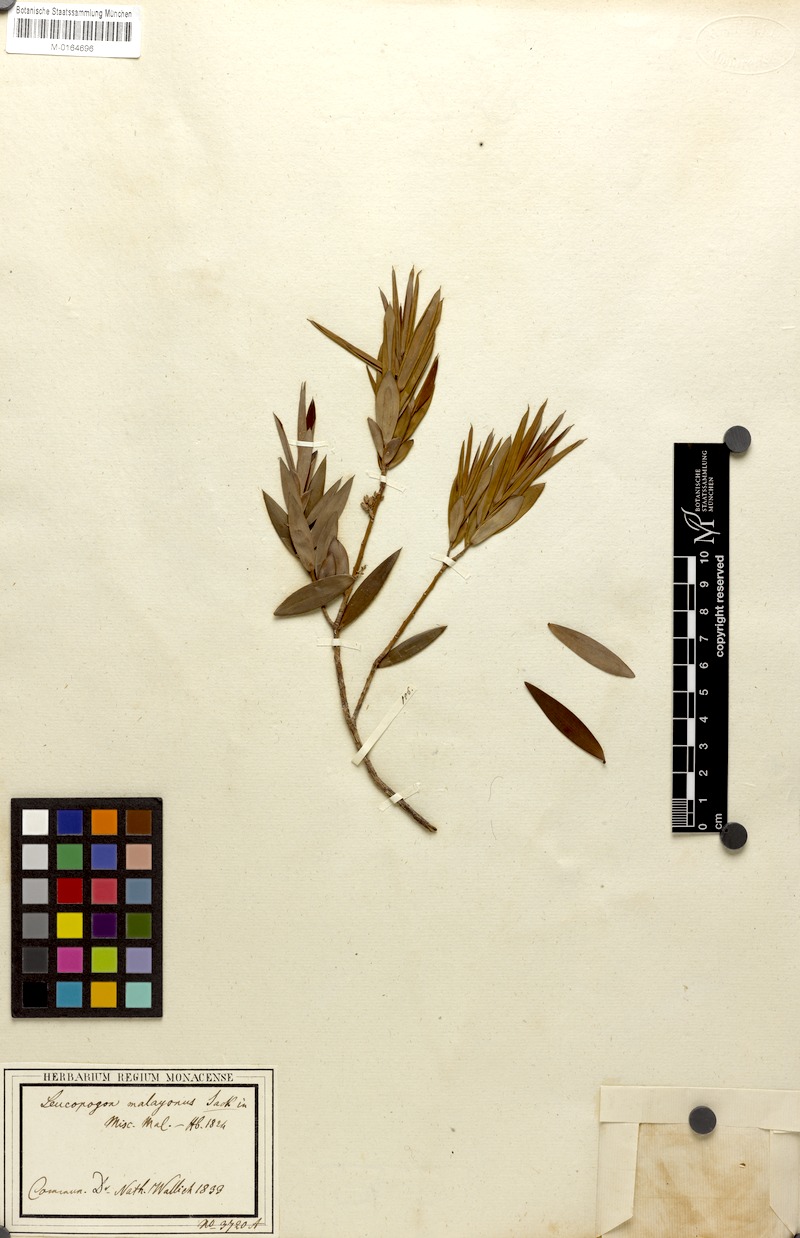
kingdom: Plantae
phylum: Tracheophyta
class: Magnoliopsida
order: Ericales
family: Ericaceae
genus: Styphelia
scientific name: Styphelia malayana
